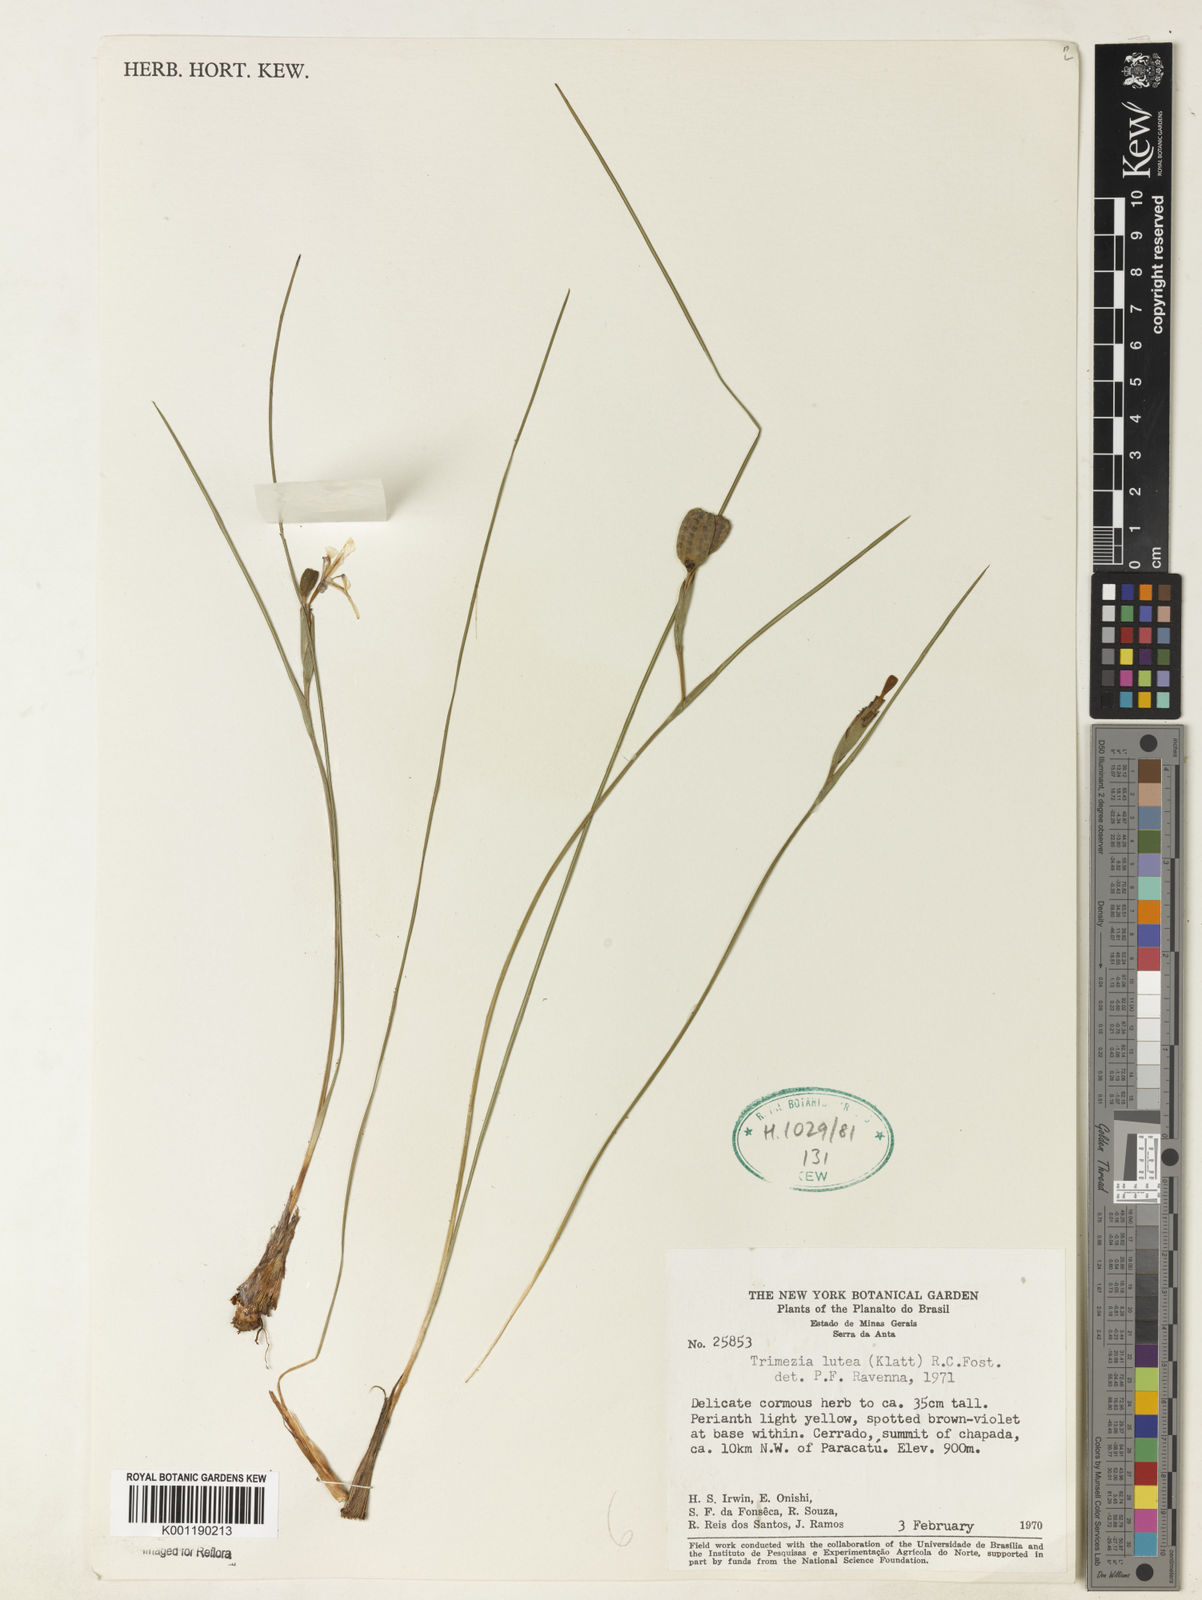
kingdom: Plantae
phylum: Tracheophyta
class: Liliopsida
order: Asparagales
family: Iridaceae
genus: Trimezia
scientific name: Trimezia longifolia
